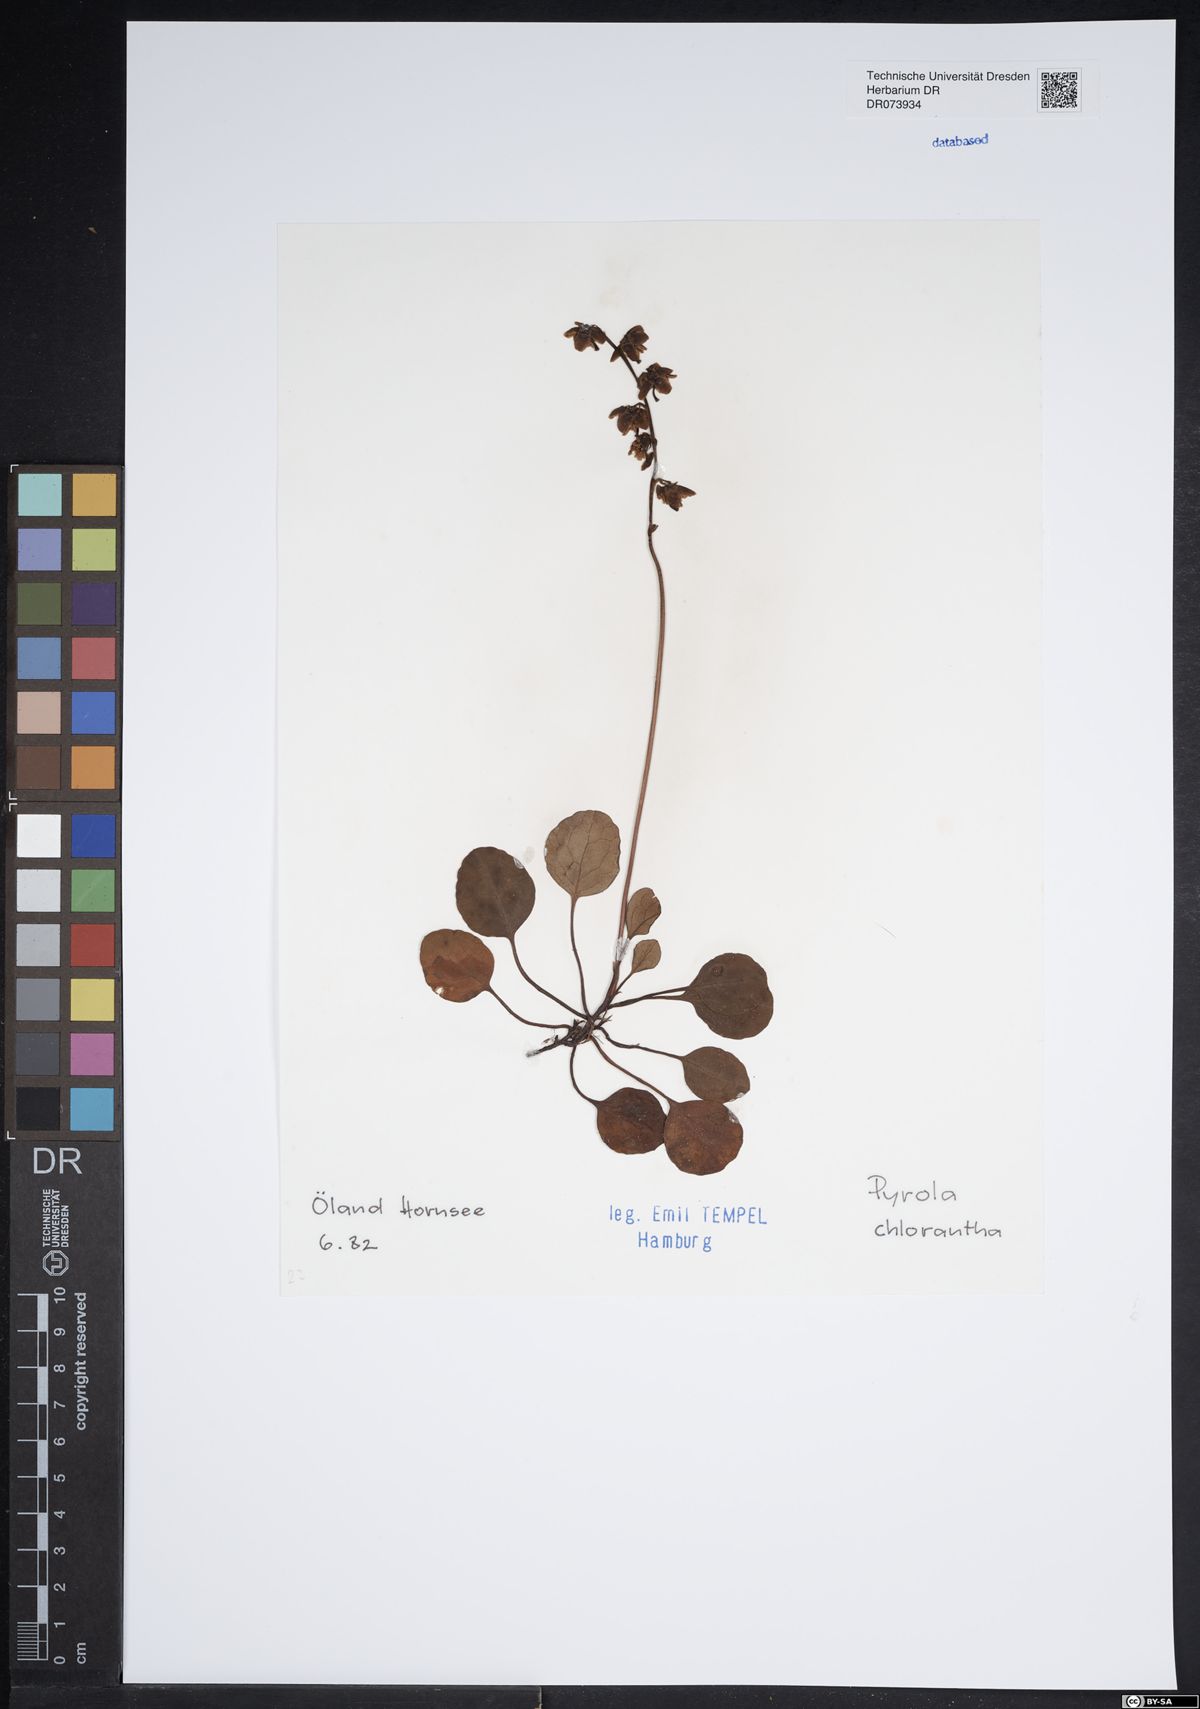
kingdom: Plantae
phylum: Tracheophyta
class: Magnoliopsida
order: Ericales
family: Ericaceae
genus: Pyrola
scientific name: Pyrola chlorantha
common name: Green wintergreen
